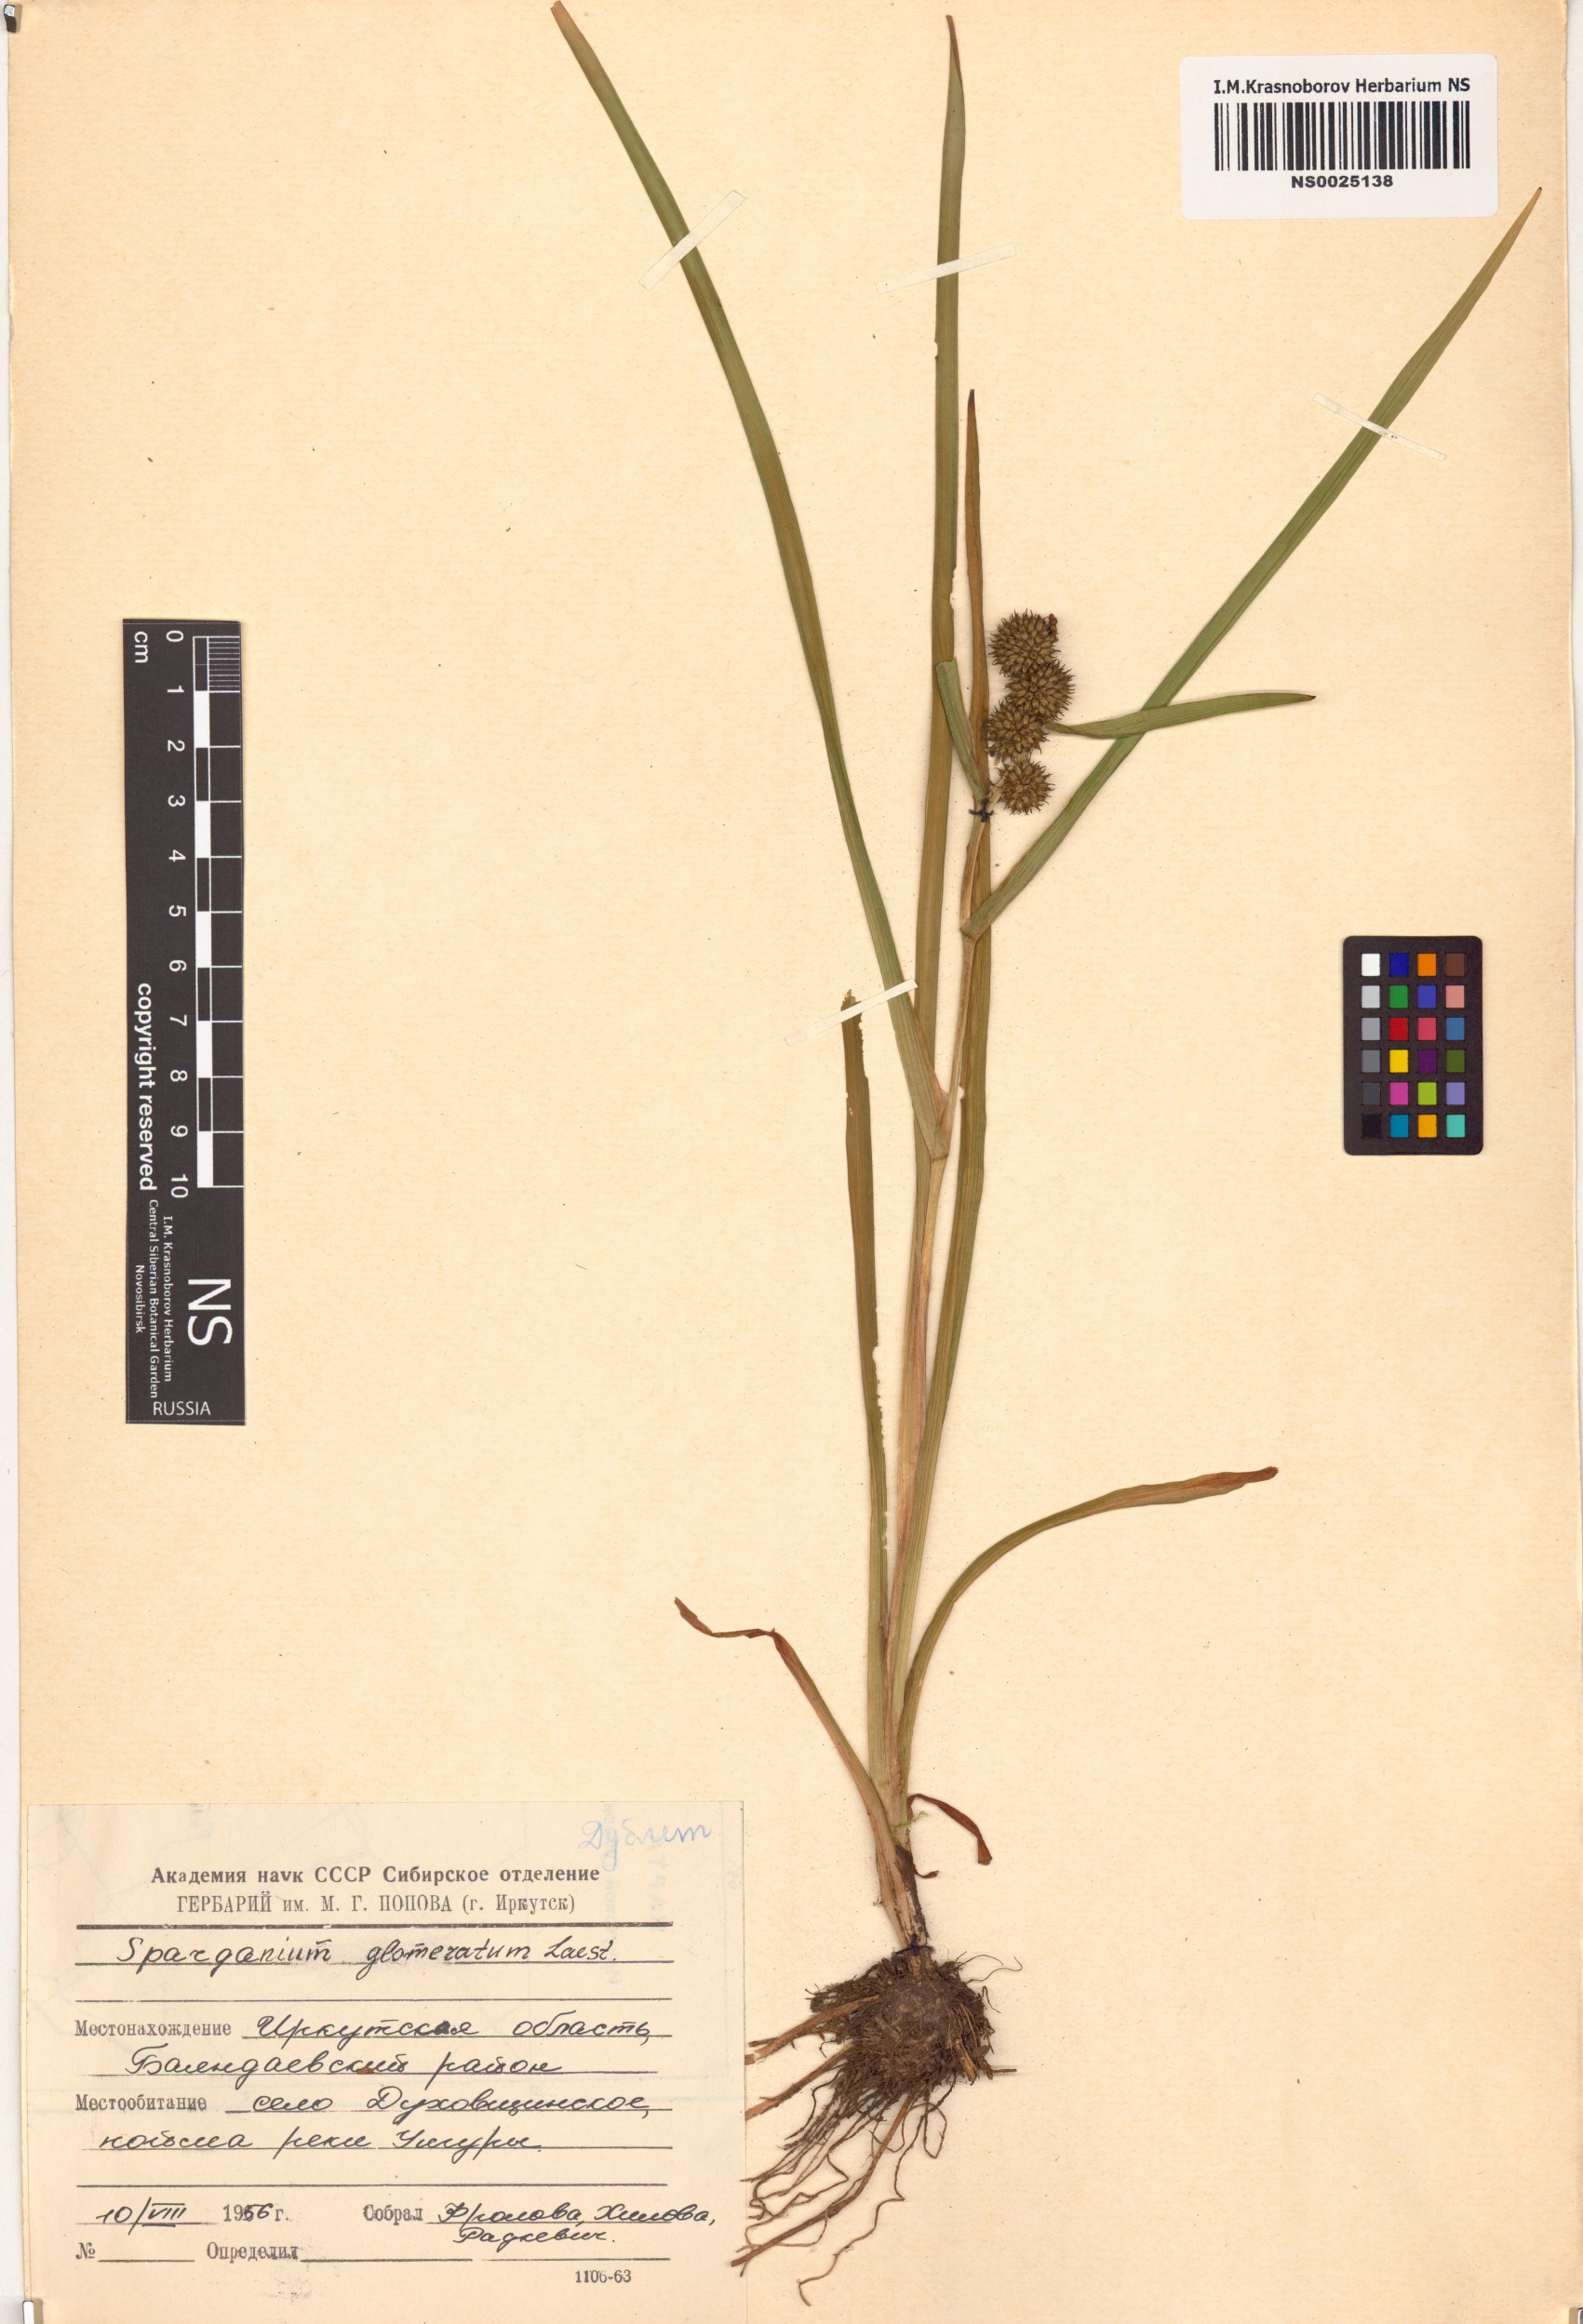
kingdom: Plantae
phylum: Tracheophyta
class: Liliopsida
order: Poales
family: Typhaceae
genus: Sparganium
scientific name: Sparganium glomeratum
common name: Clustered burreed
